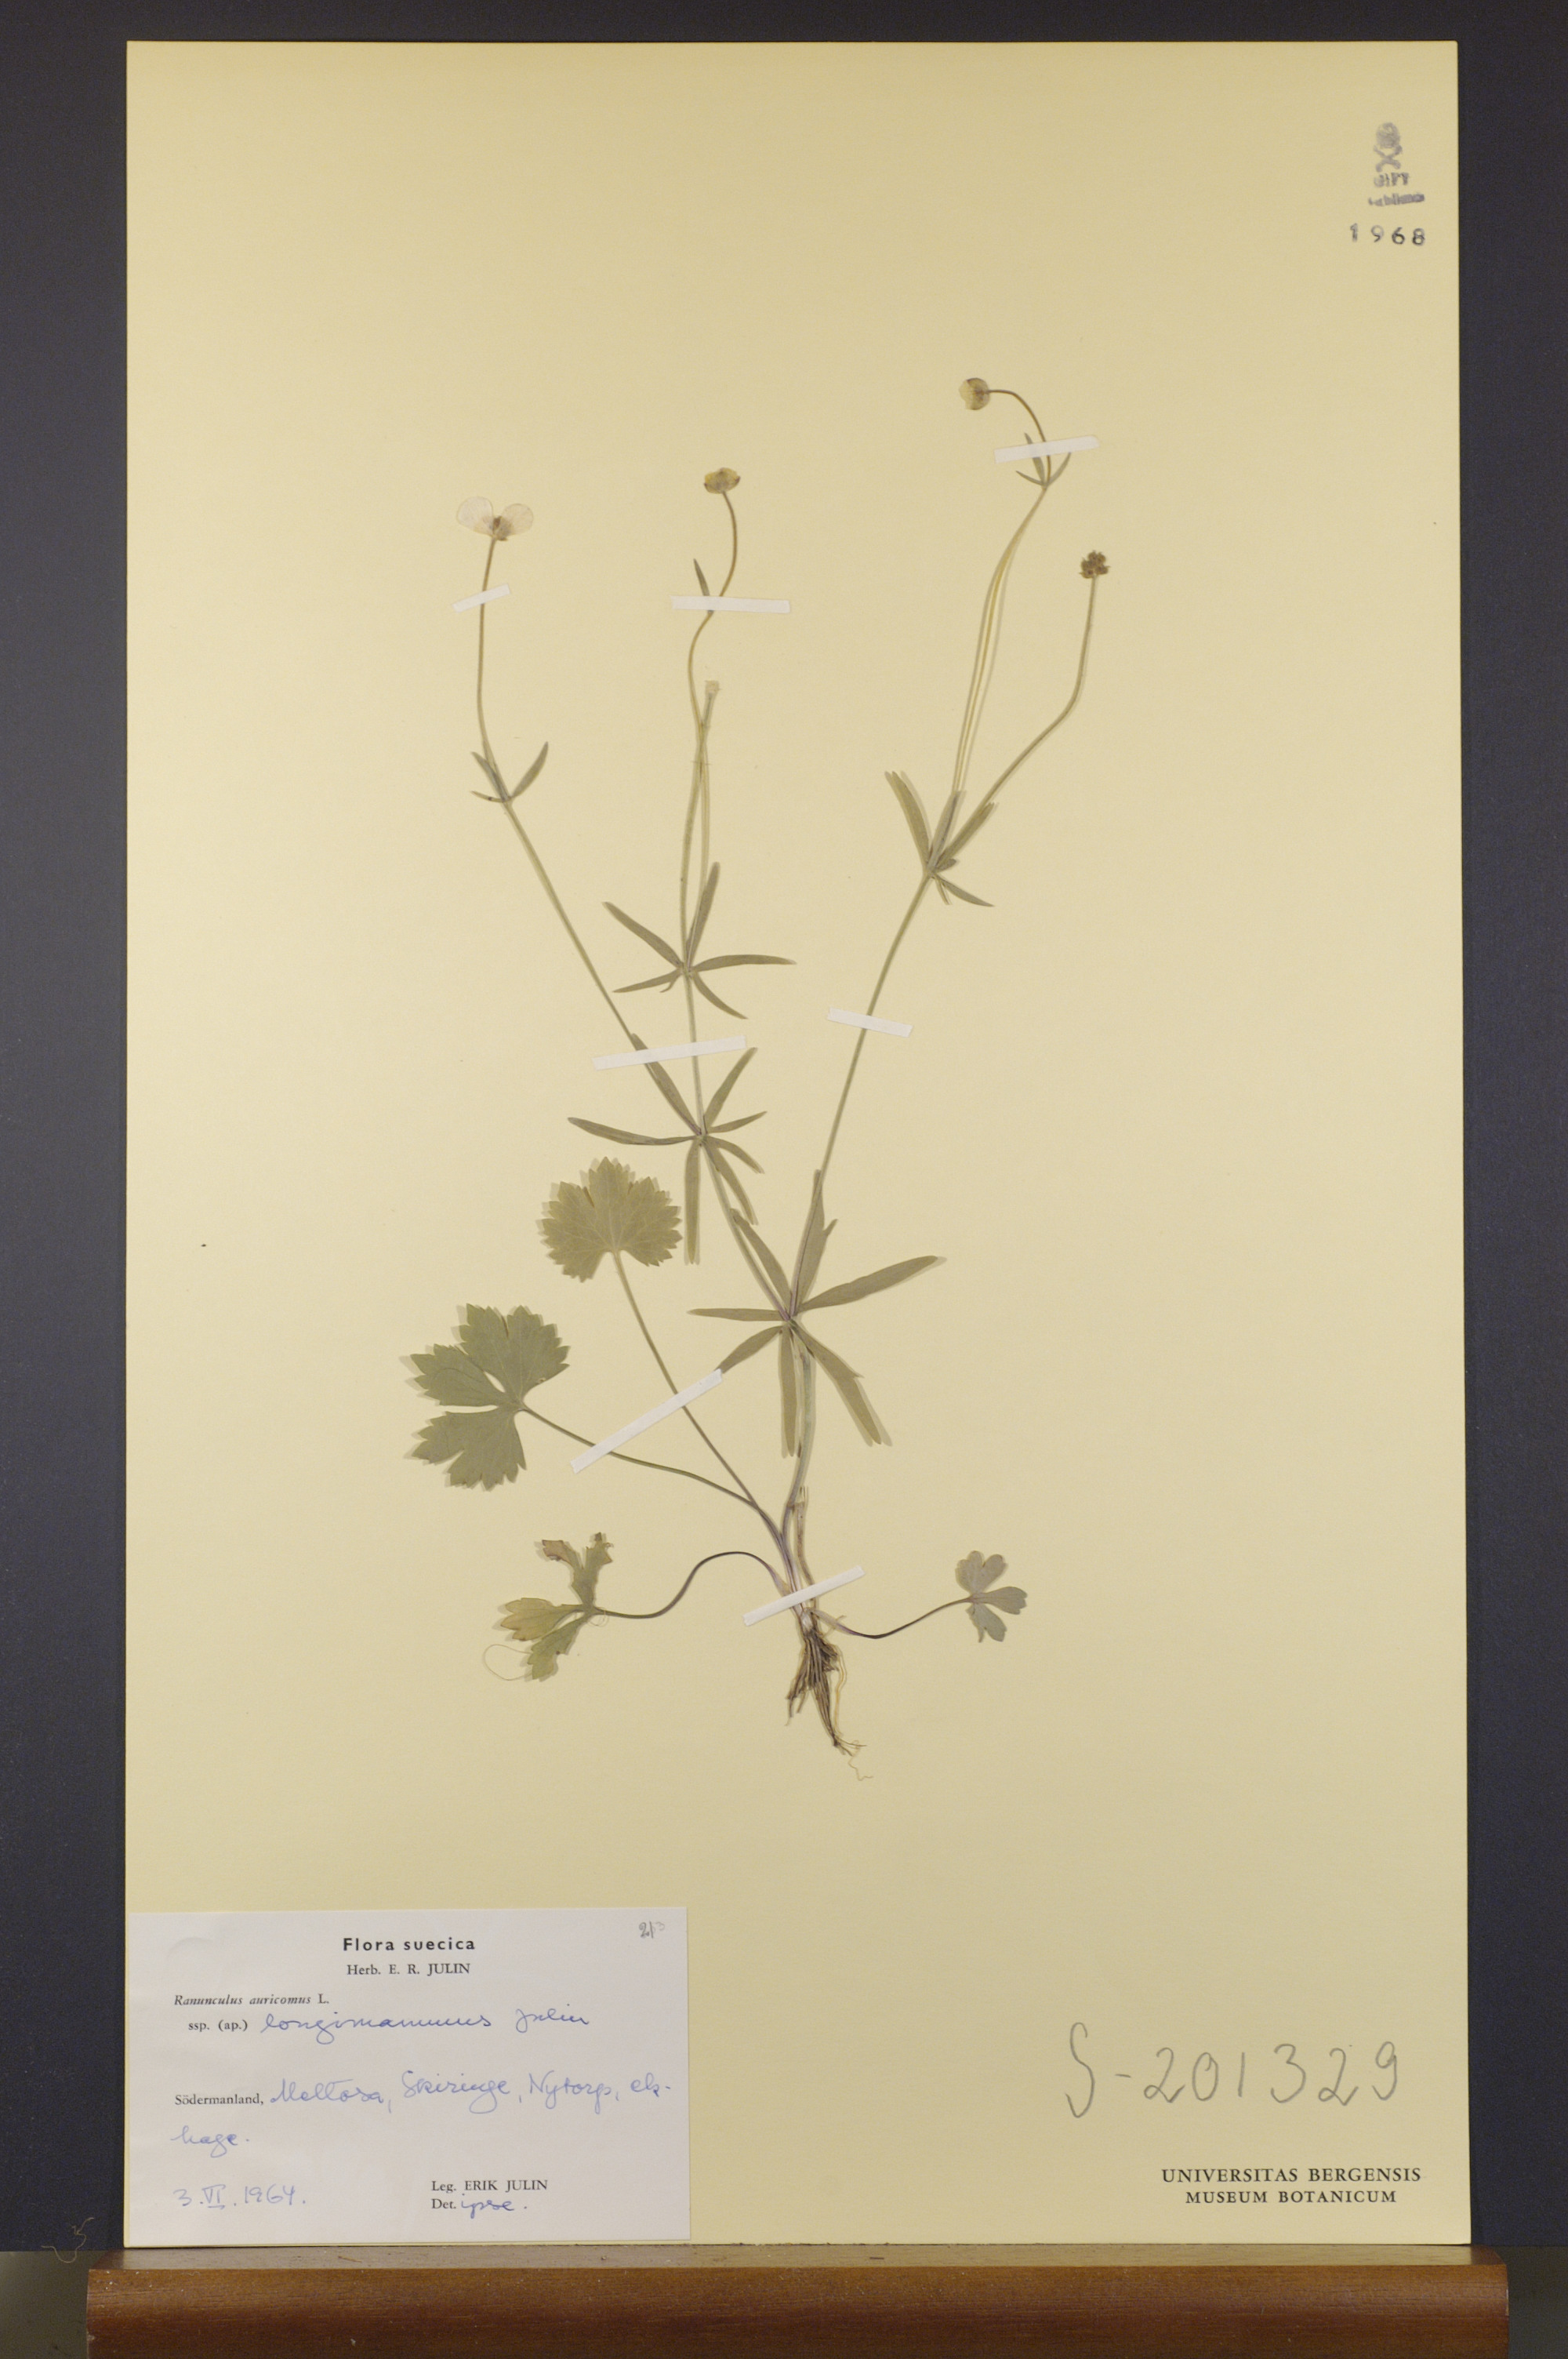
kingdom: Plantae
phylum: Tracheophyta
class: Magnoliopsida
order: Ranunculales
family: Ranunculaceae
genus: Ranunculus
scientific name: Ranunculus longimammus
